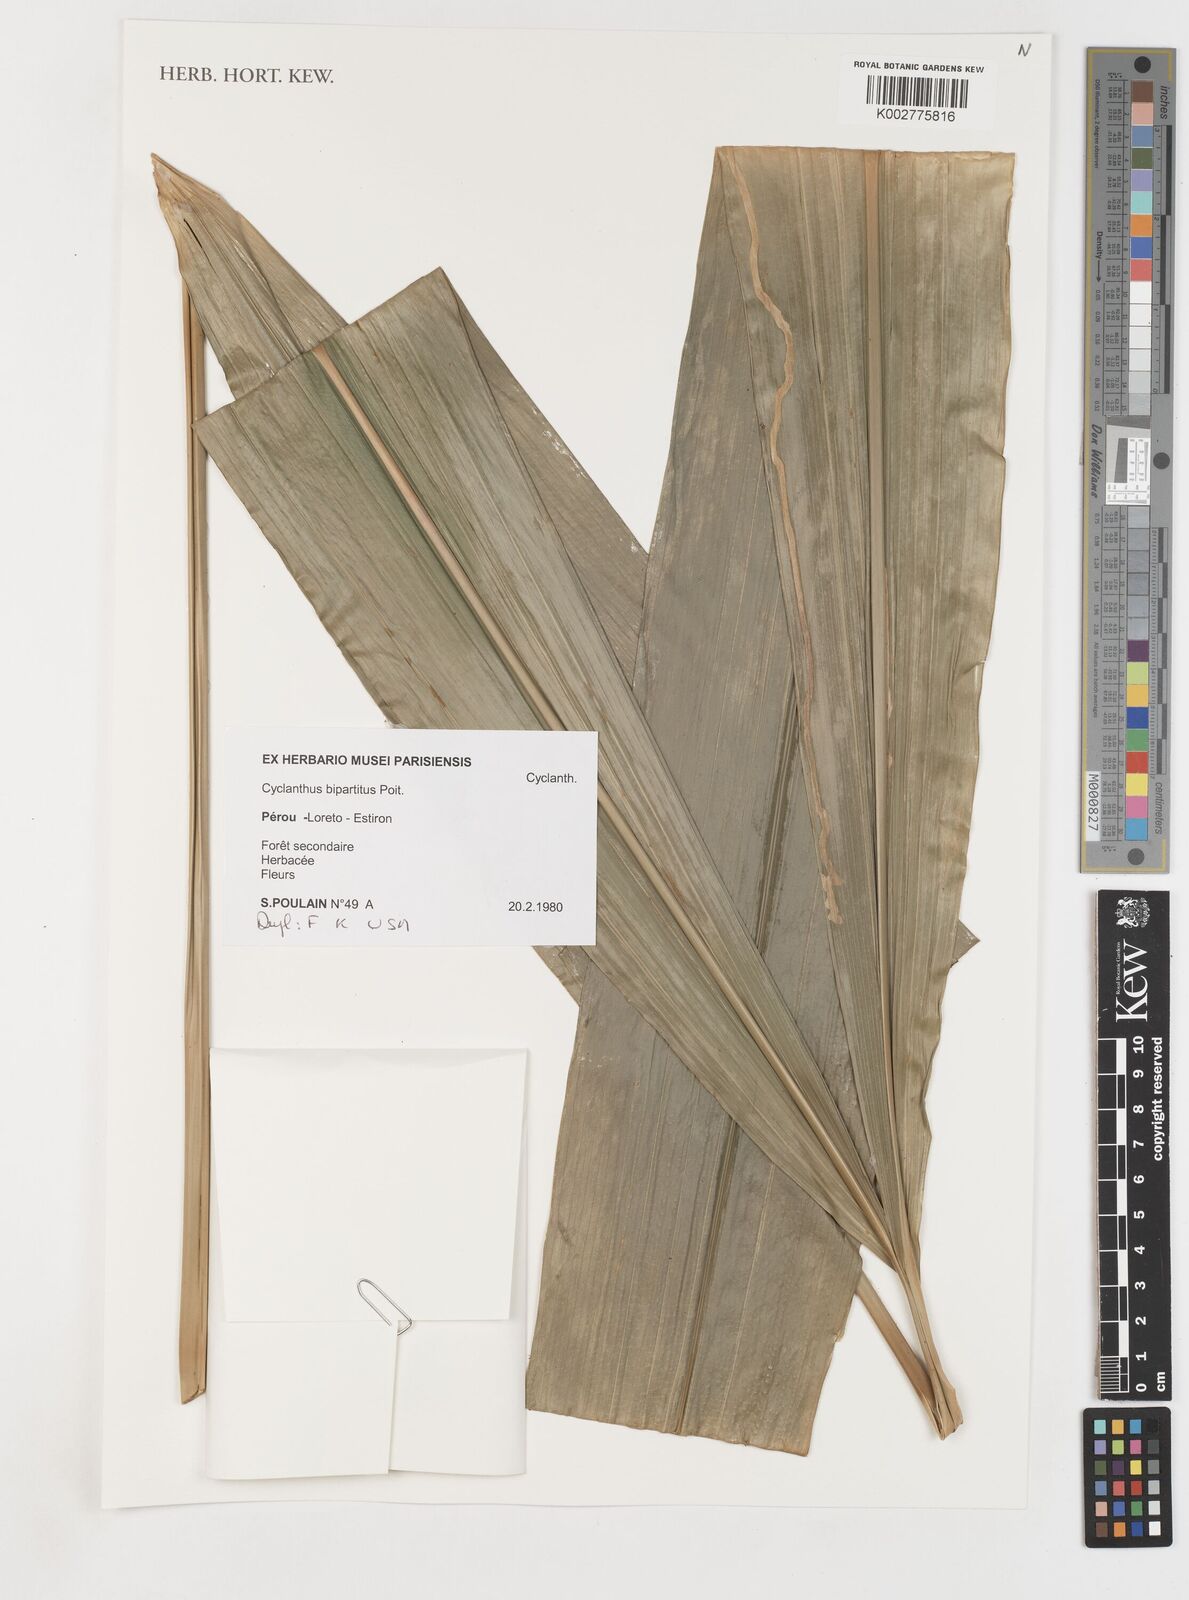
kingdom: Plantae
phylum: Tracheophyta
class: Liliopsida
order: Pandanales
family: Cyclanthaceae
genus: Cyclanthus
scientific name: Cyclanthus bipartitus
